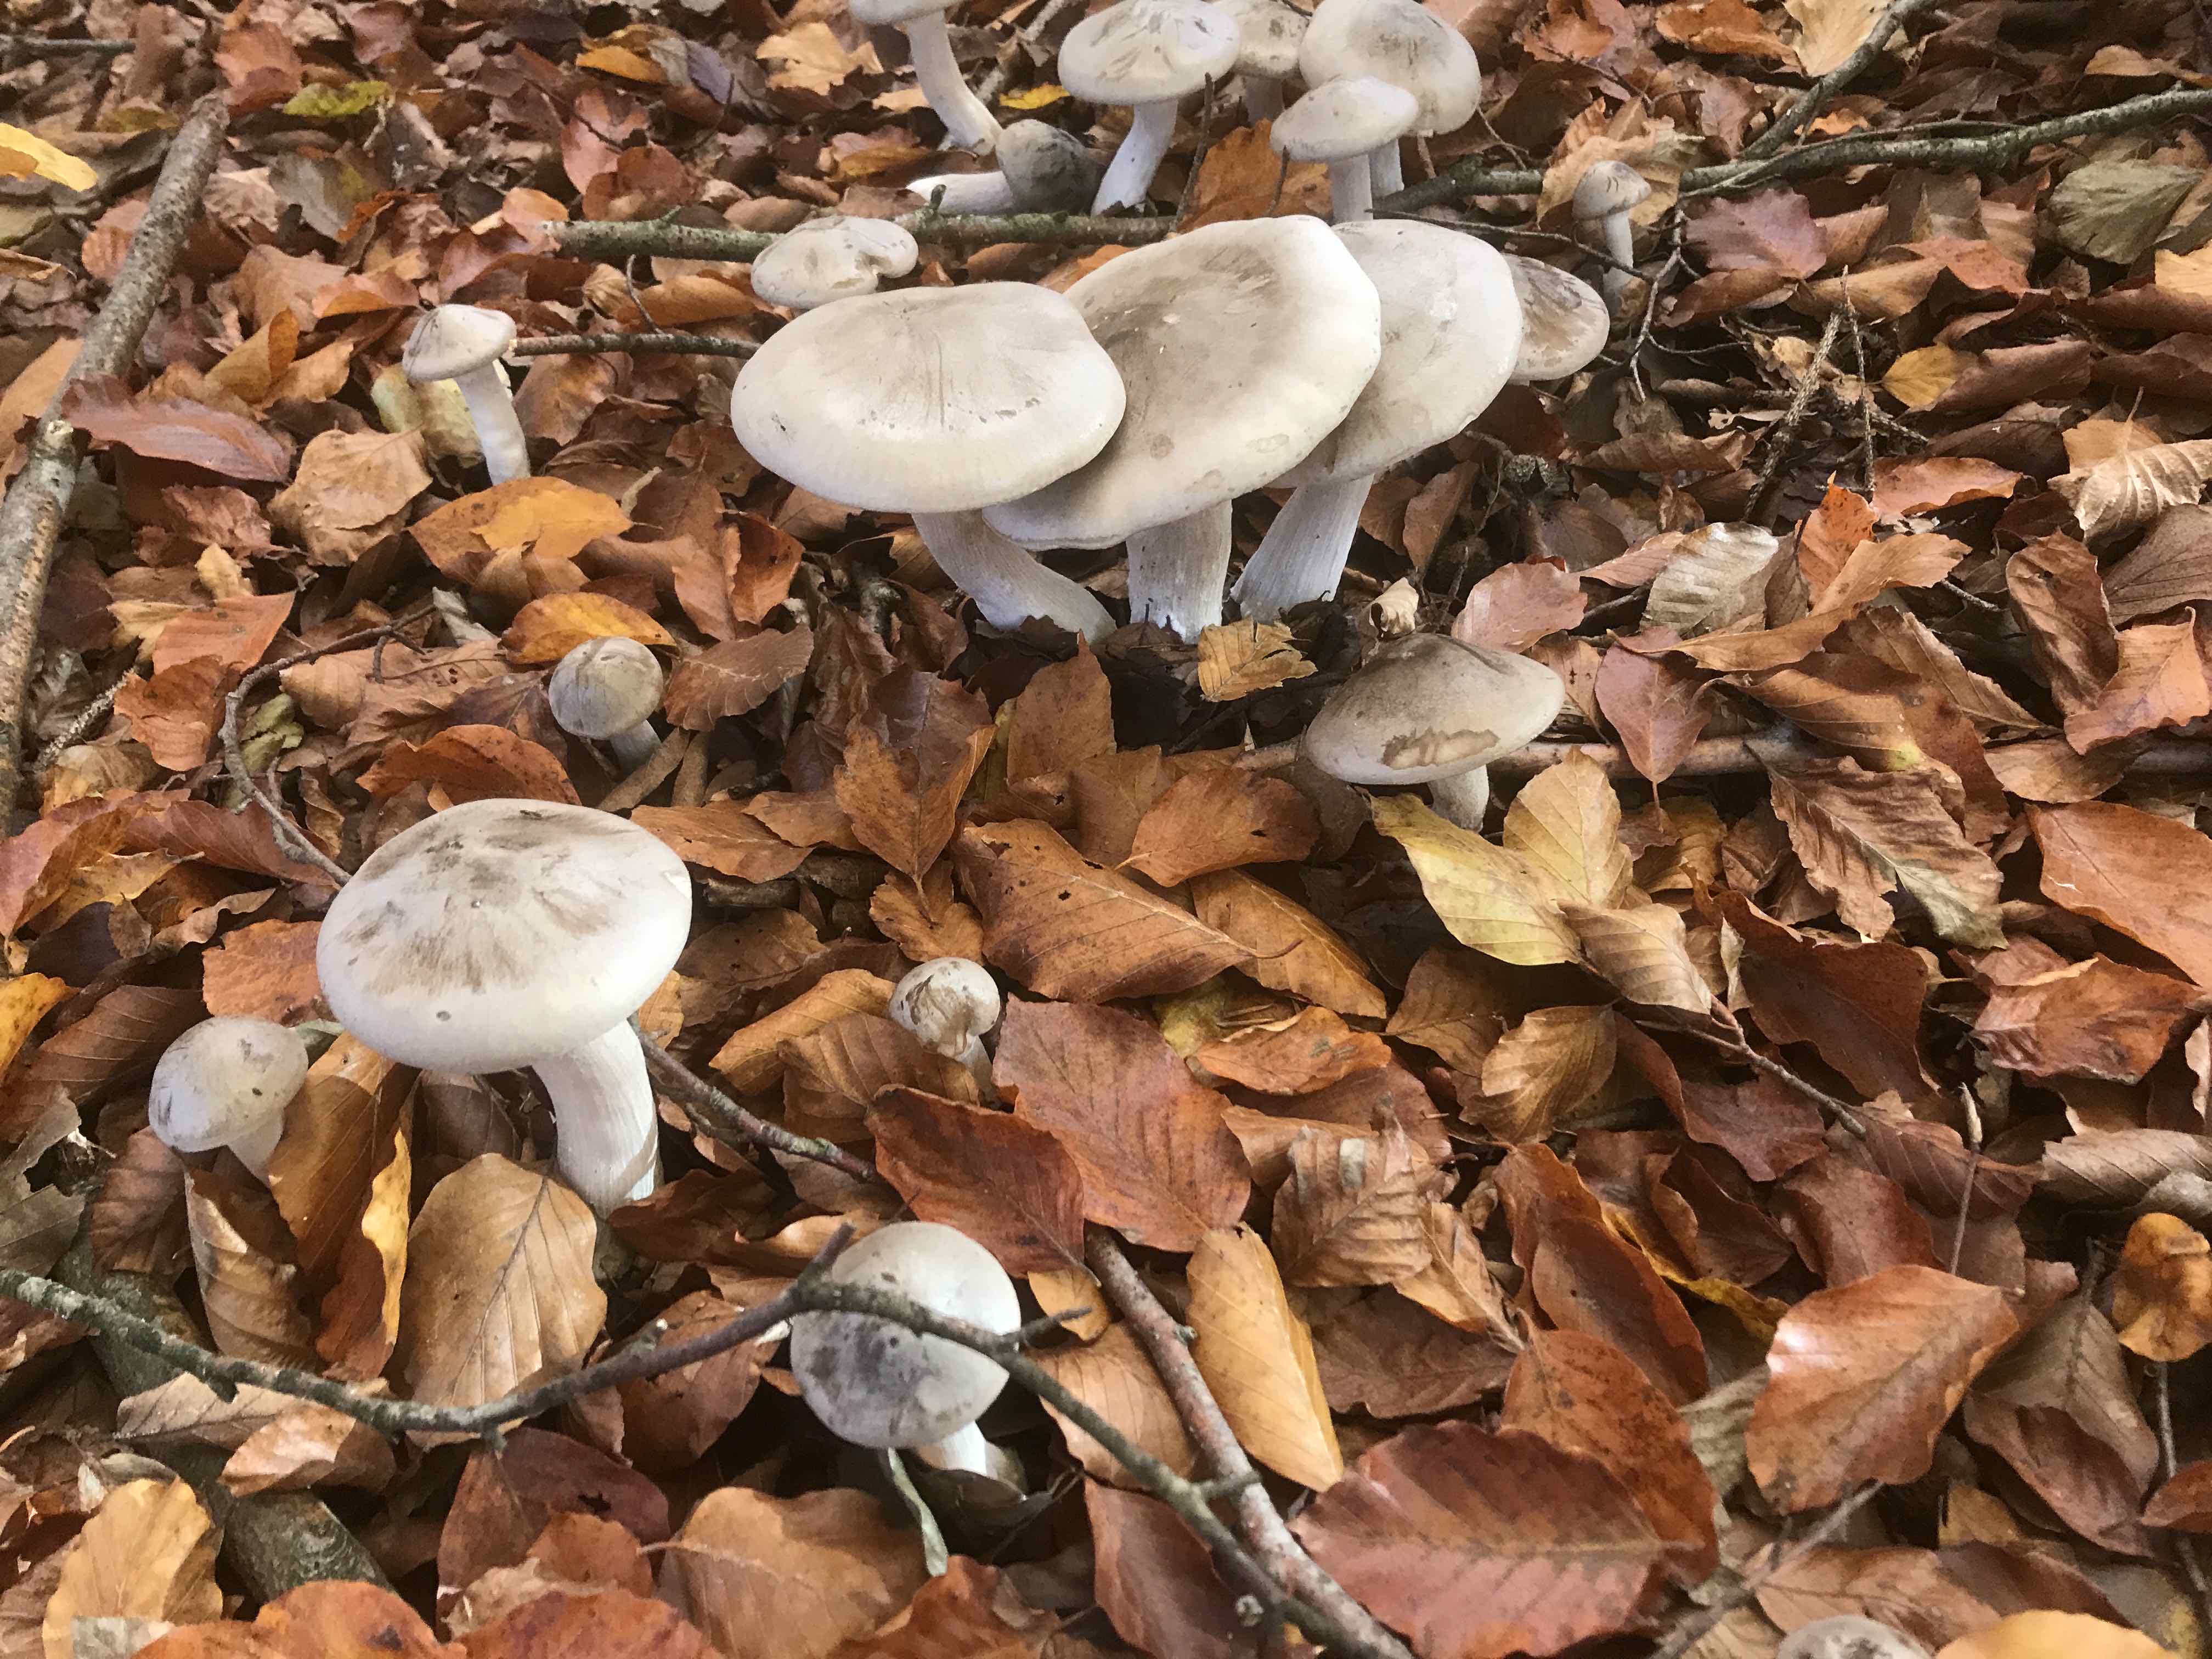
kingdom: Fungi
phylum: Basidiomycota
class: Agaricomycetes
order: Agaricales
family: Tricholomataceae
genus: Clitocybe
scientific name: Clitocybe nebularis
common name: tåge-tragthat
